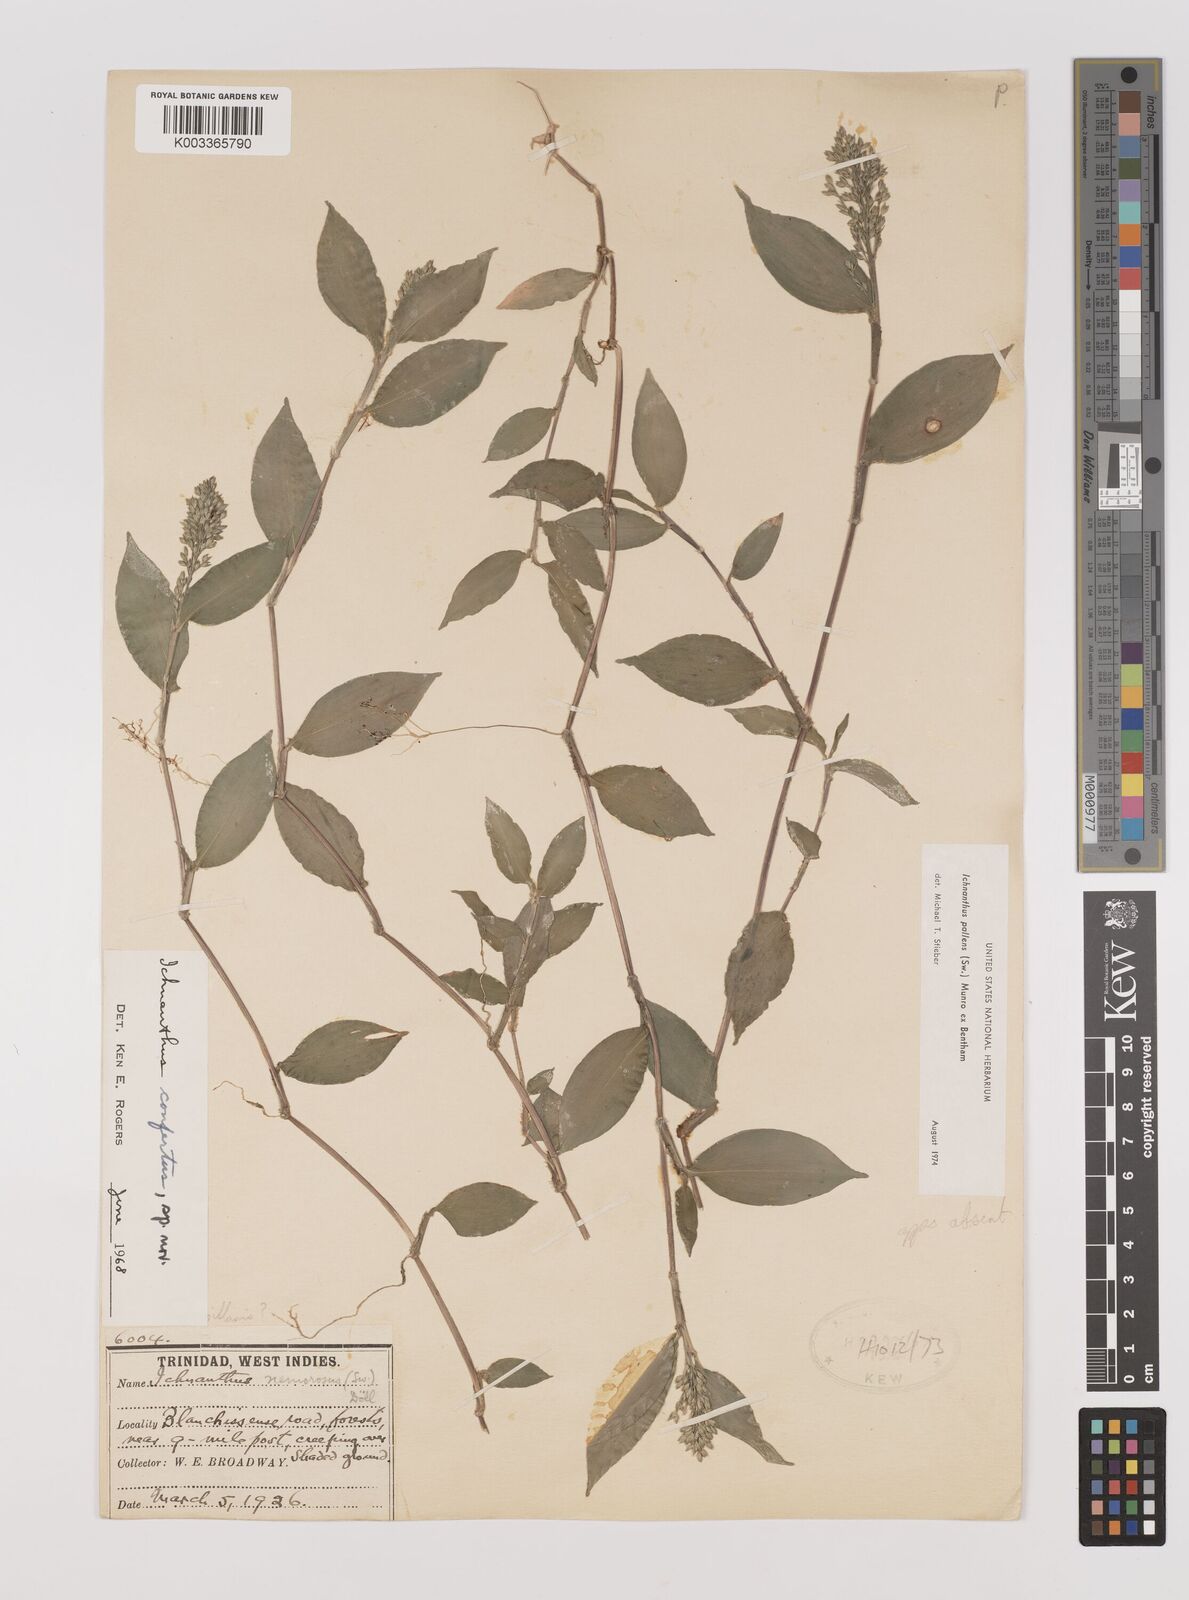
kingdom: Plantae
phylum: Tracheophyta
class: Liliopsida
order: Poales
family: Poaceae
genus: Ichnanthus
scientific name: Ichnanthus pallens
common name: Water grass
